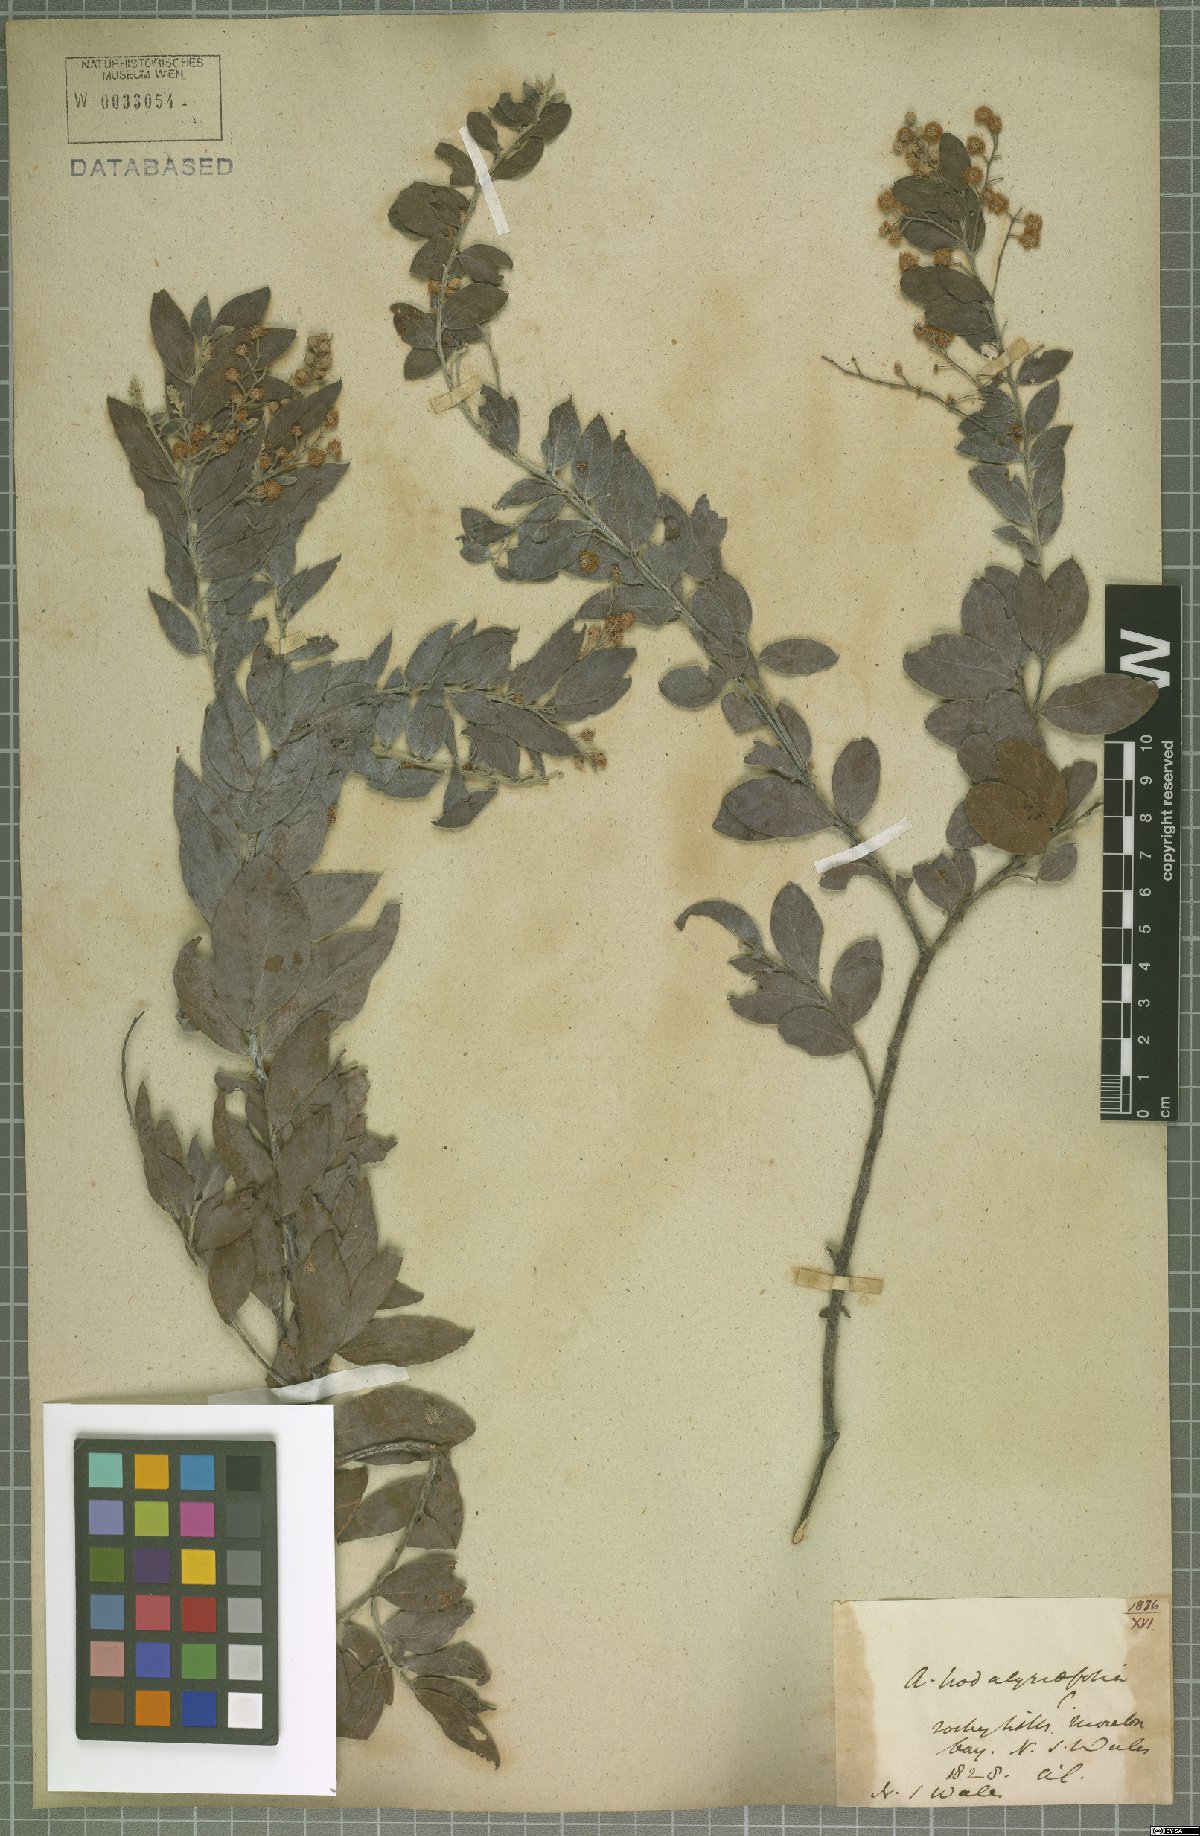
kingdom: Plantae
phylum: Tracheophyta
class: Magnoliopsida
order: Fabales
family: Fabaceae
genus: Acacia
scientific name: Acacia podalyriifolia
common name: Pearl wattle
